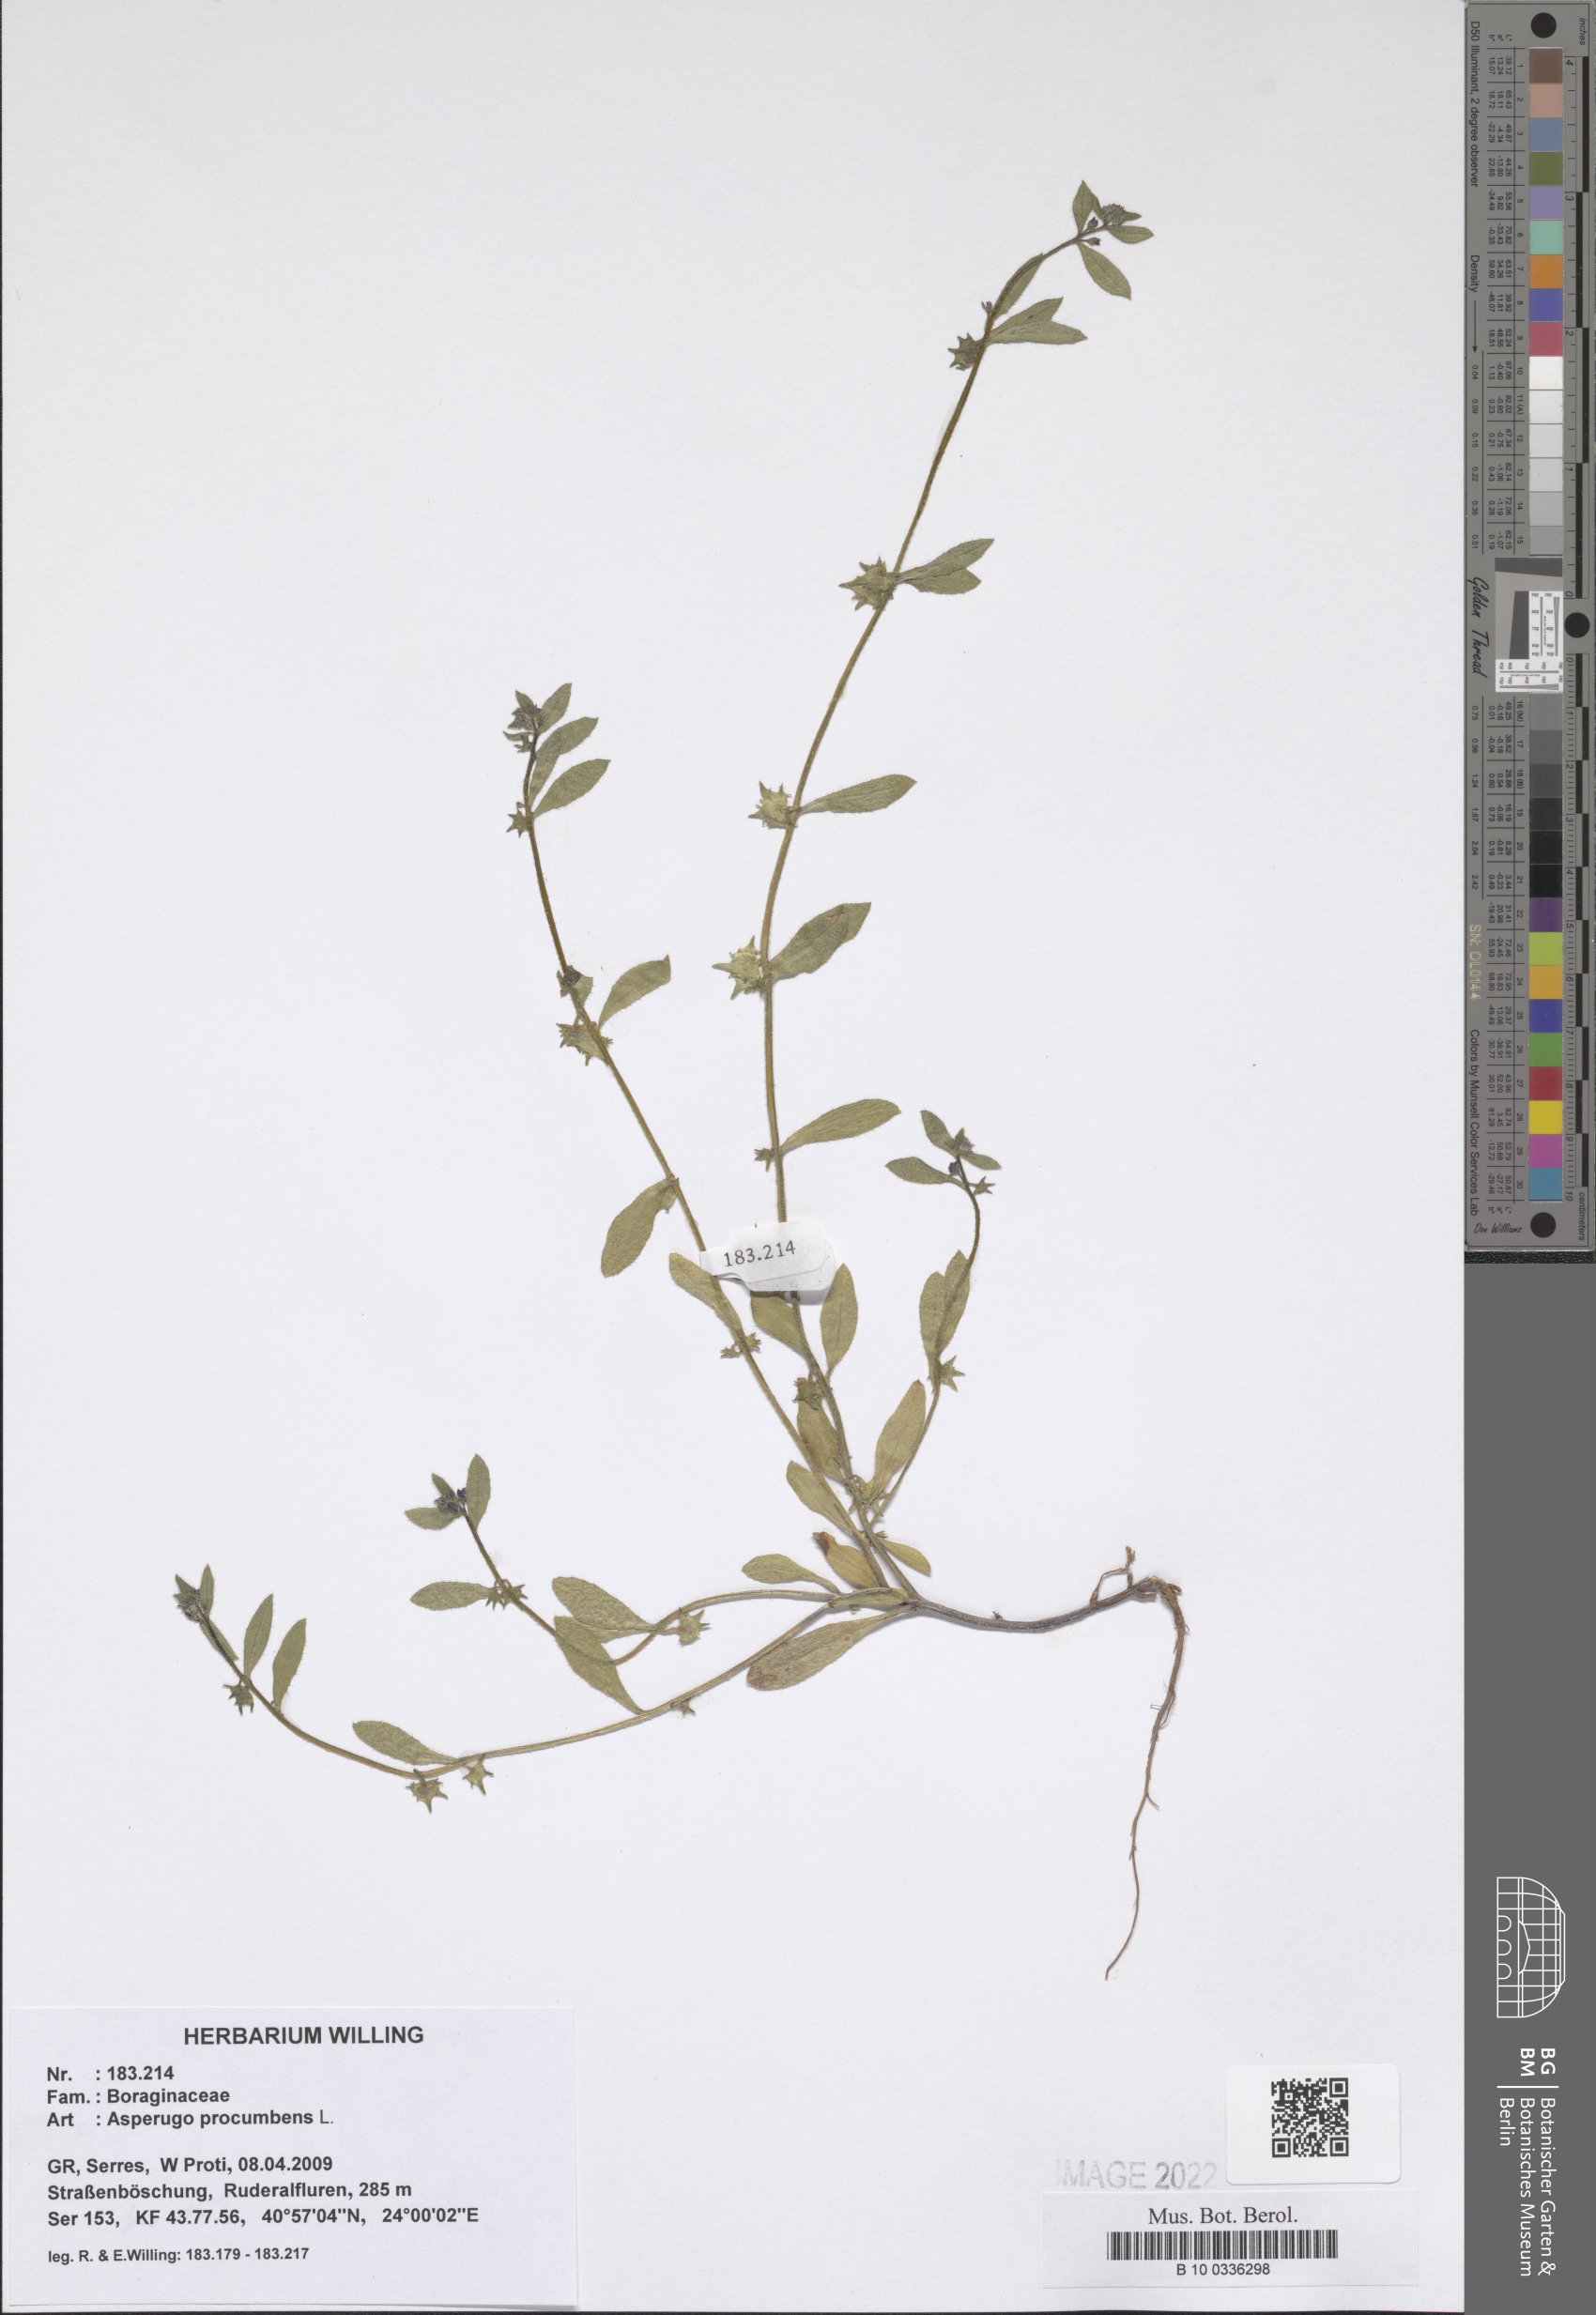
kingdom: Plantae
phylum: Tracheophyta
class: Magnoliopsida
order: Boraginales
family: Boraginaceae
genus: Asperugo
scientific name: Asperugo procumbens
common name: Madwort
